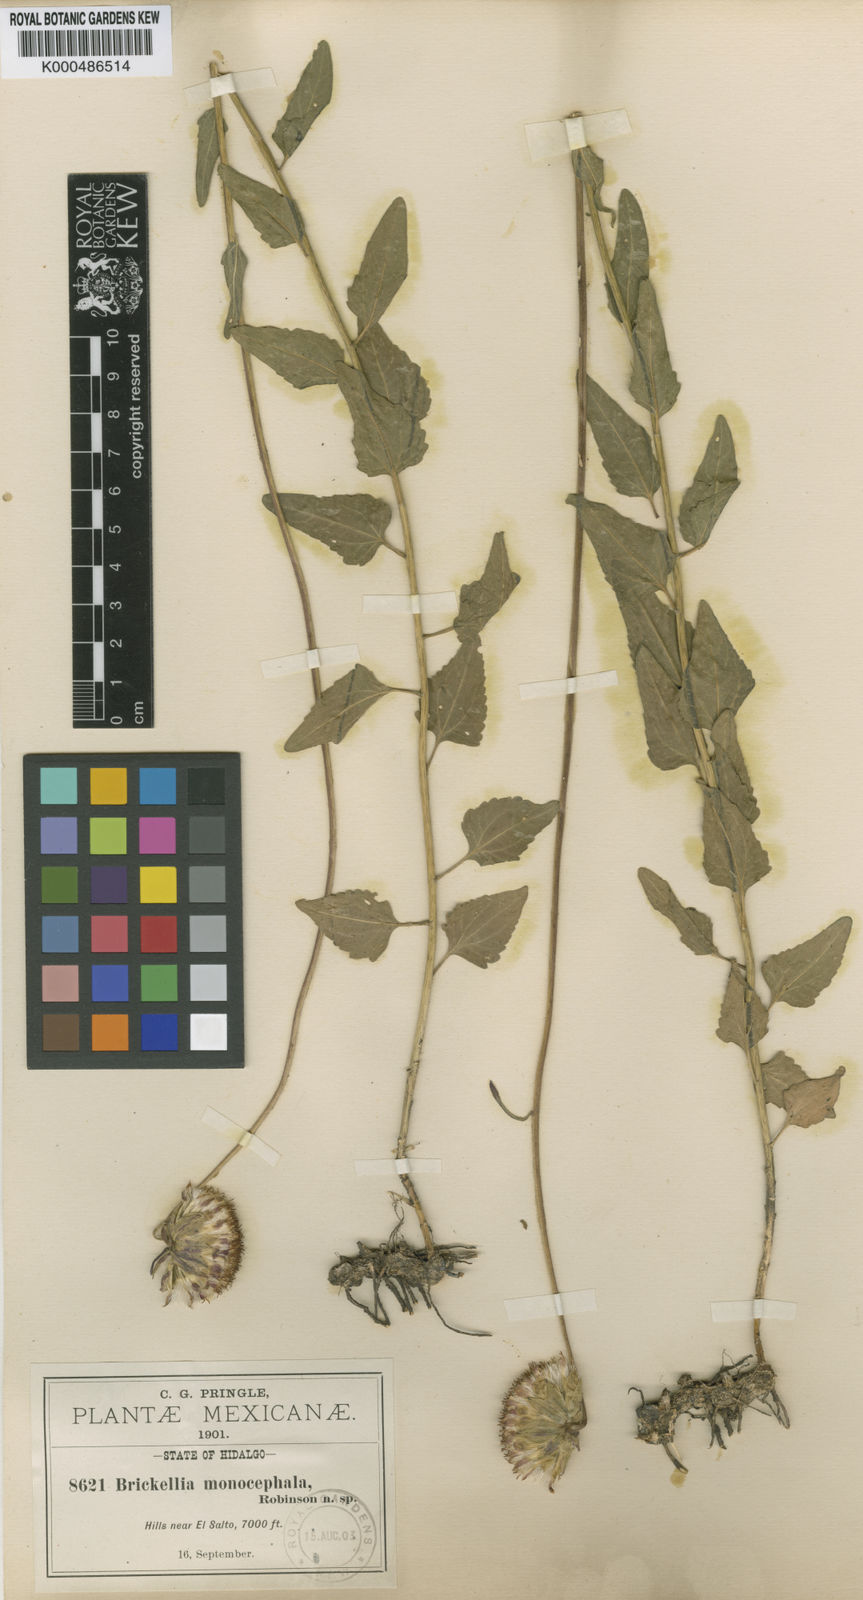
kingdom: Plantae
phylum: Tracheophyta
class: Magnoliopsida
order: Asterales
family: Asteraceae
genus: Brickellia
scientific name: Brickellia monocephala
